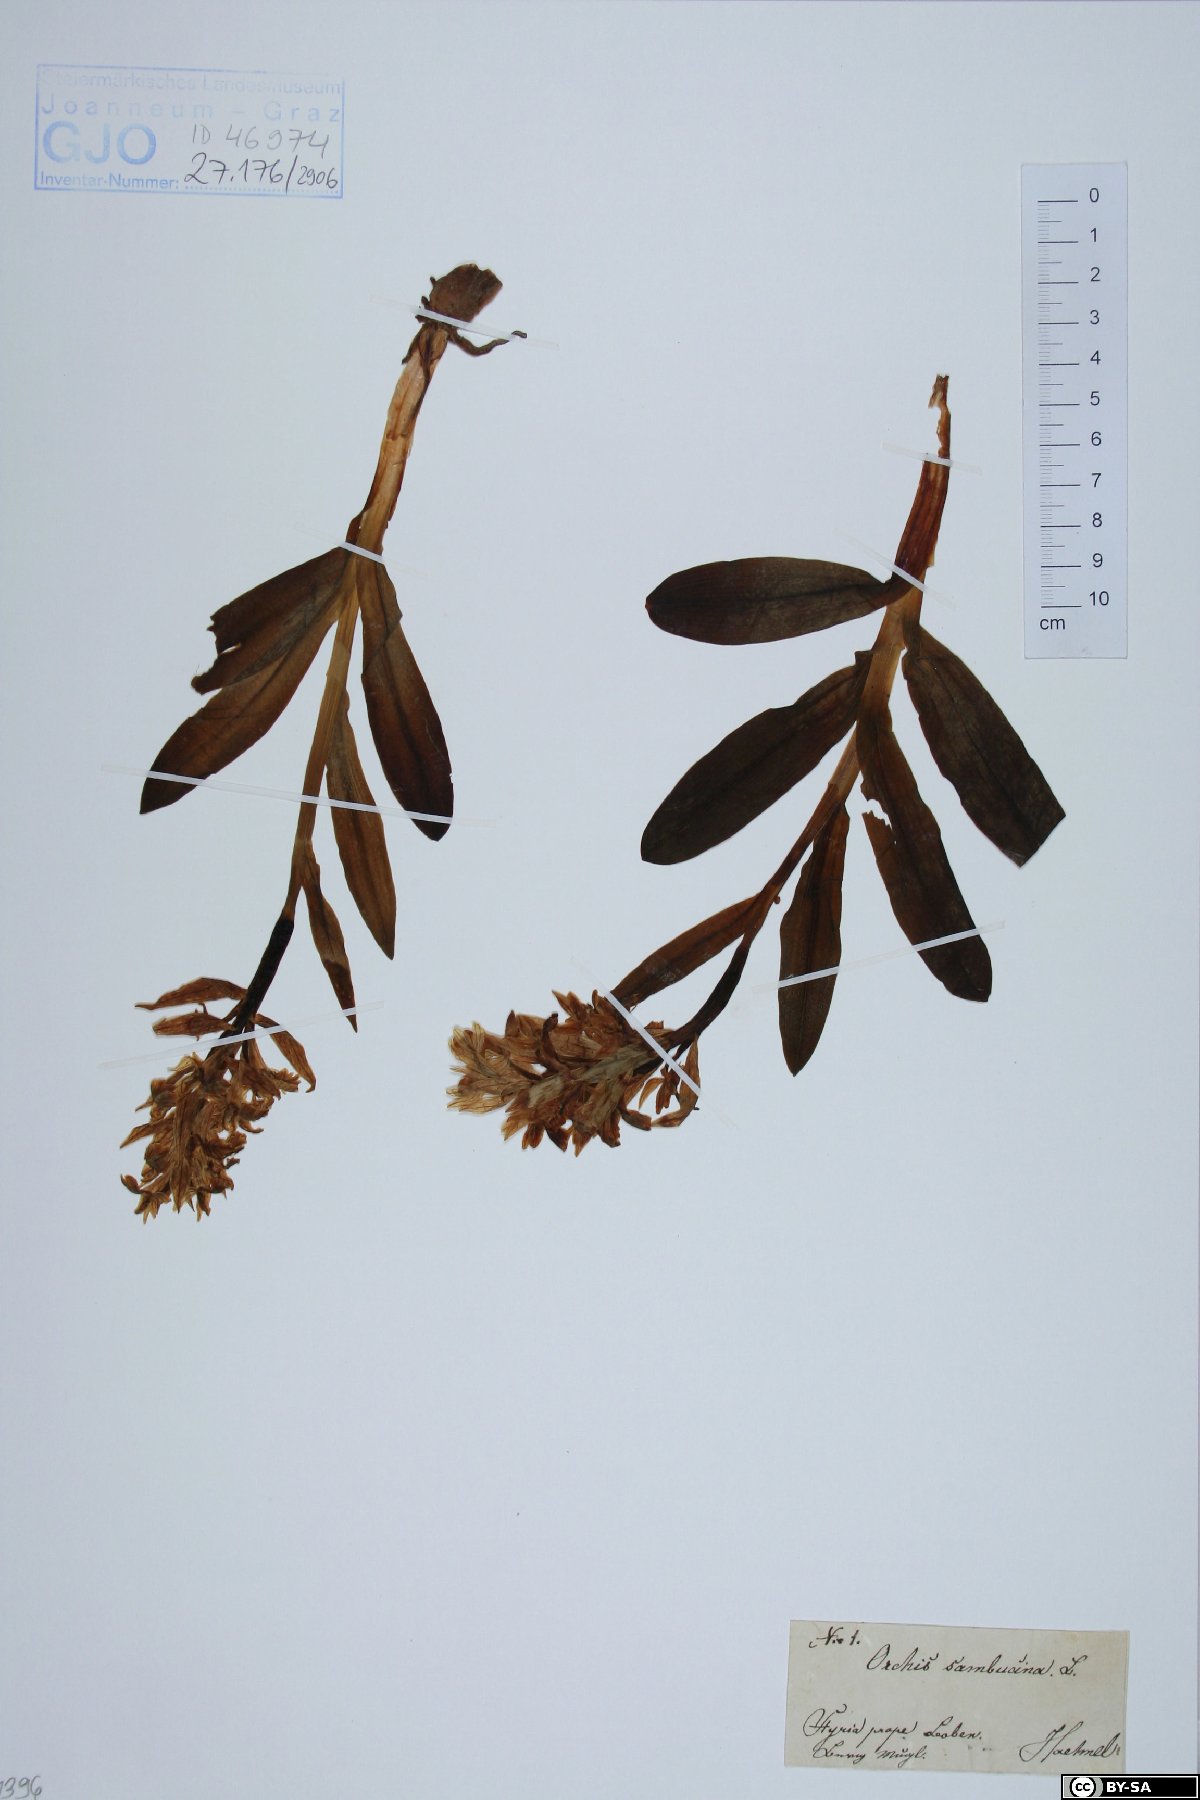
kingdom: Plantae
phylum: Tracheophyta
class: Liliopsida
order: Asparagales
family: Orchidaceae
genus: Dactylorhiza
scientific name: Dactylorhiza sambucina
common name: Elder-flowered orchid
